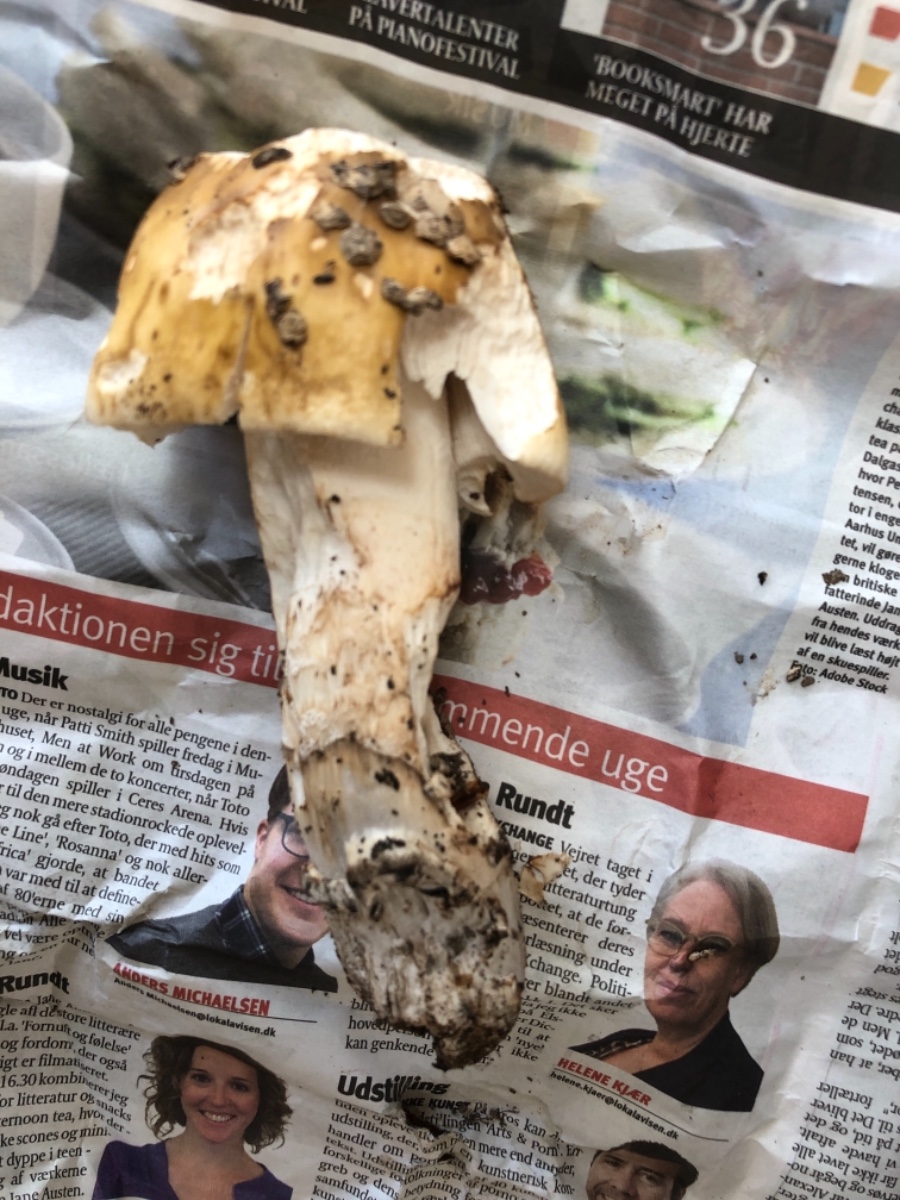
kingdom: Fungi
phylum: Basidiomycota
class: Agaricomycetes
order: Agaricales
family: Amanitaceae
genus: Amanita
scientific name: Amanita ceciliae
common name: stor kam-fluesvamp
